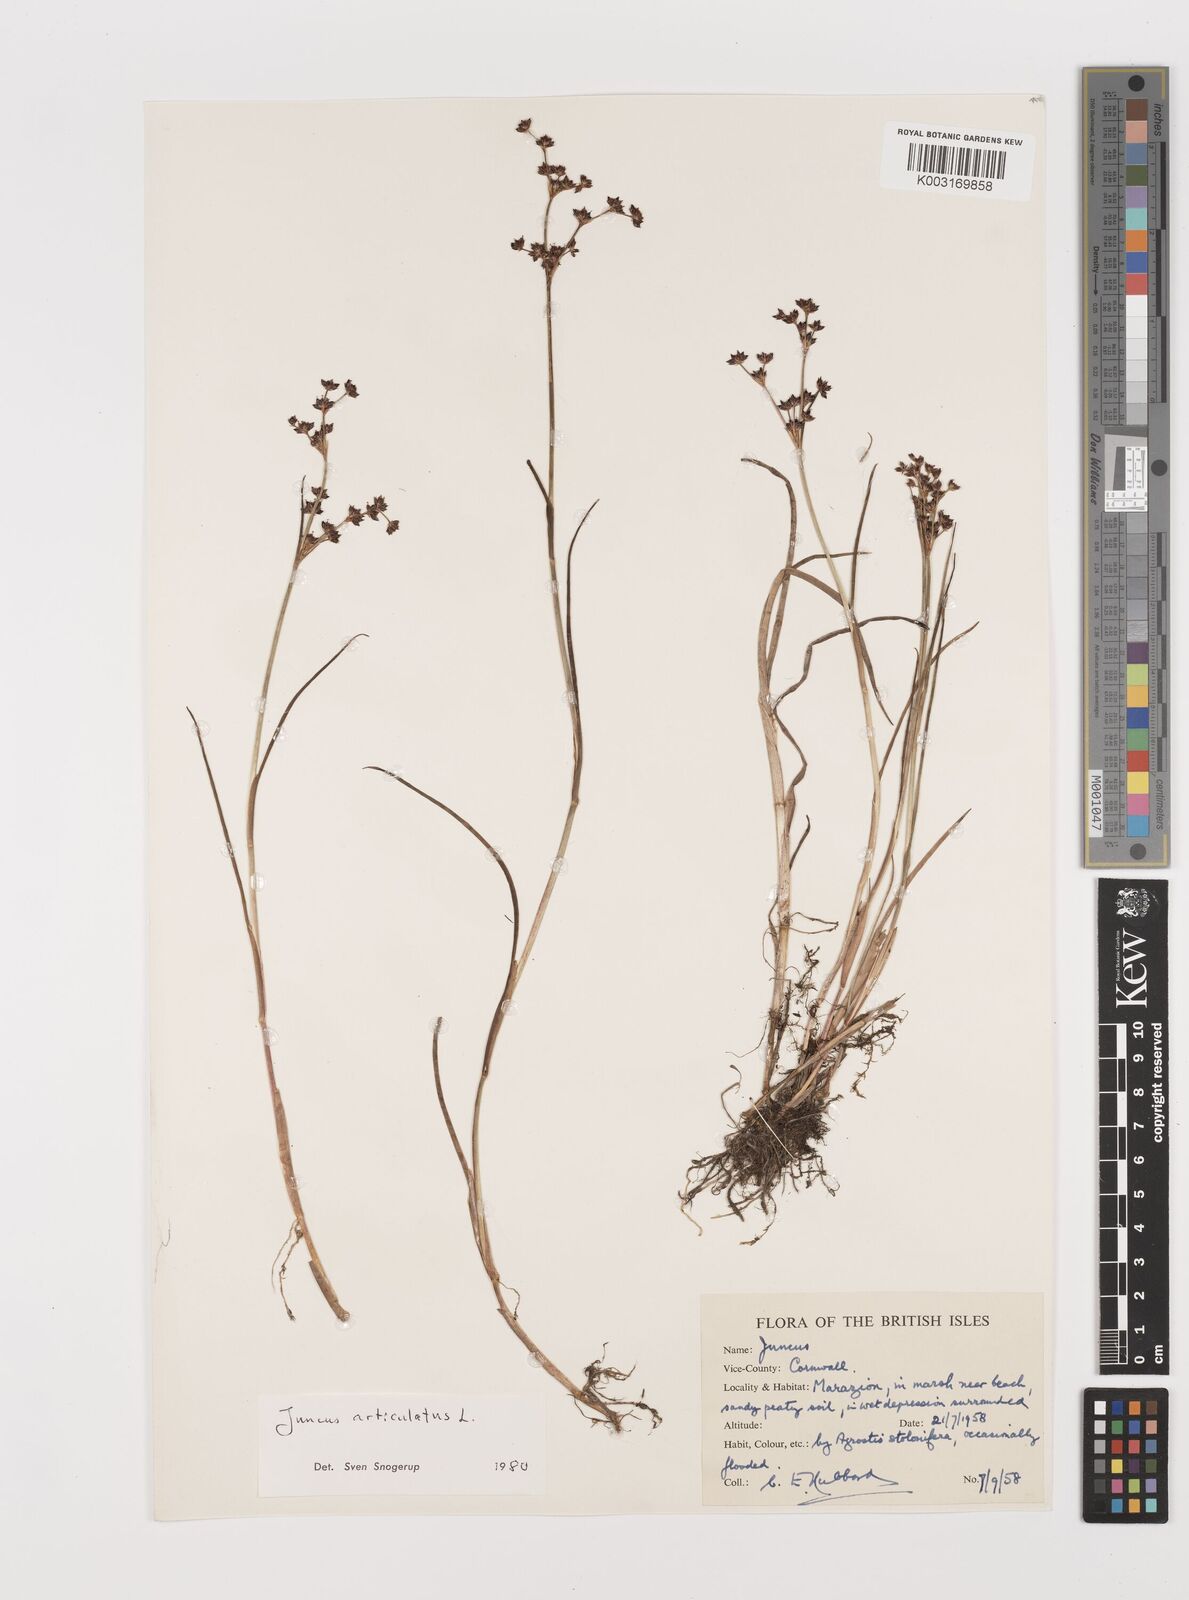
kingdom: Plantae
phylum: Tracheophyta
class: Liliopsida
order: Poales
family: Juncaceae
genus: Juncus
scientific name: Juncus articulatus
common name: Jointed rush
